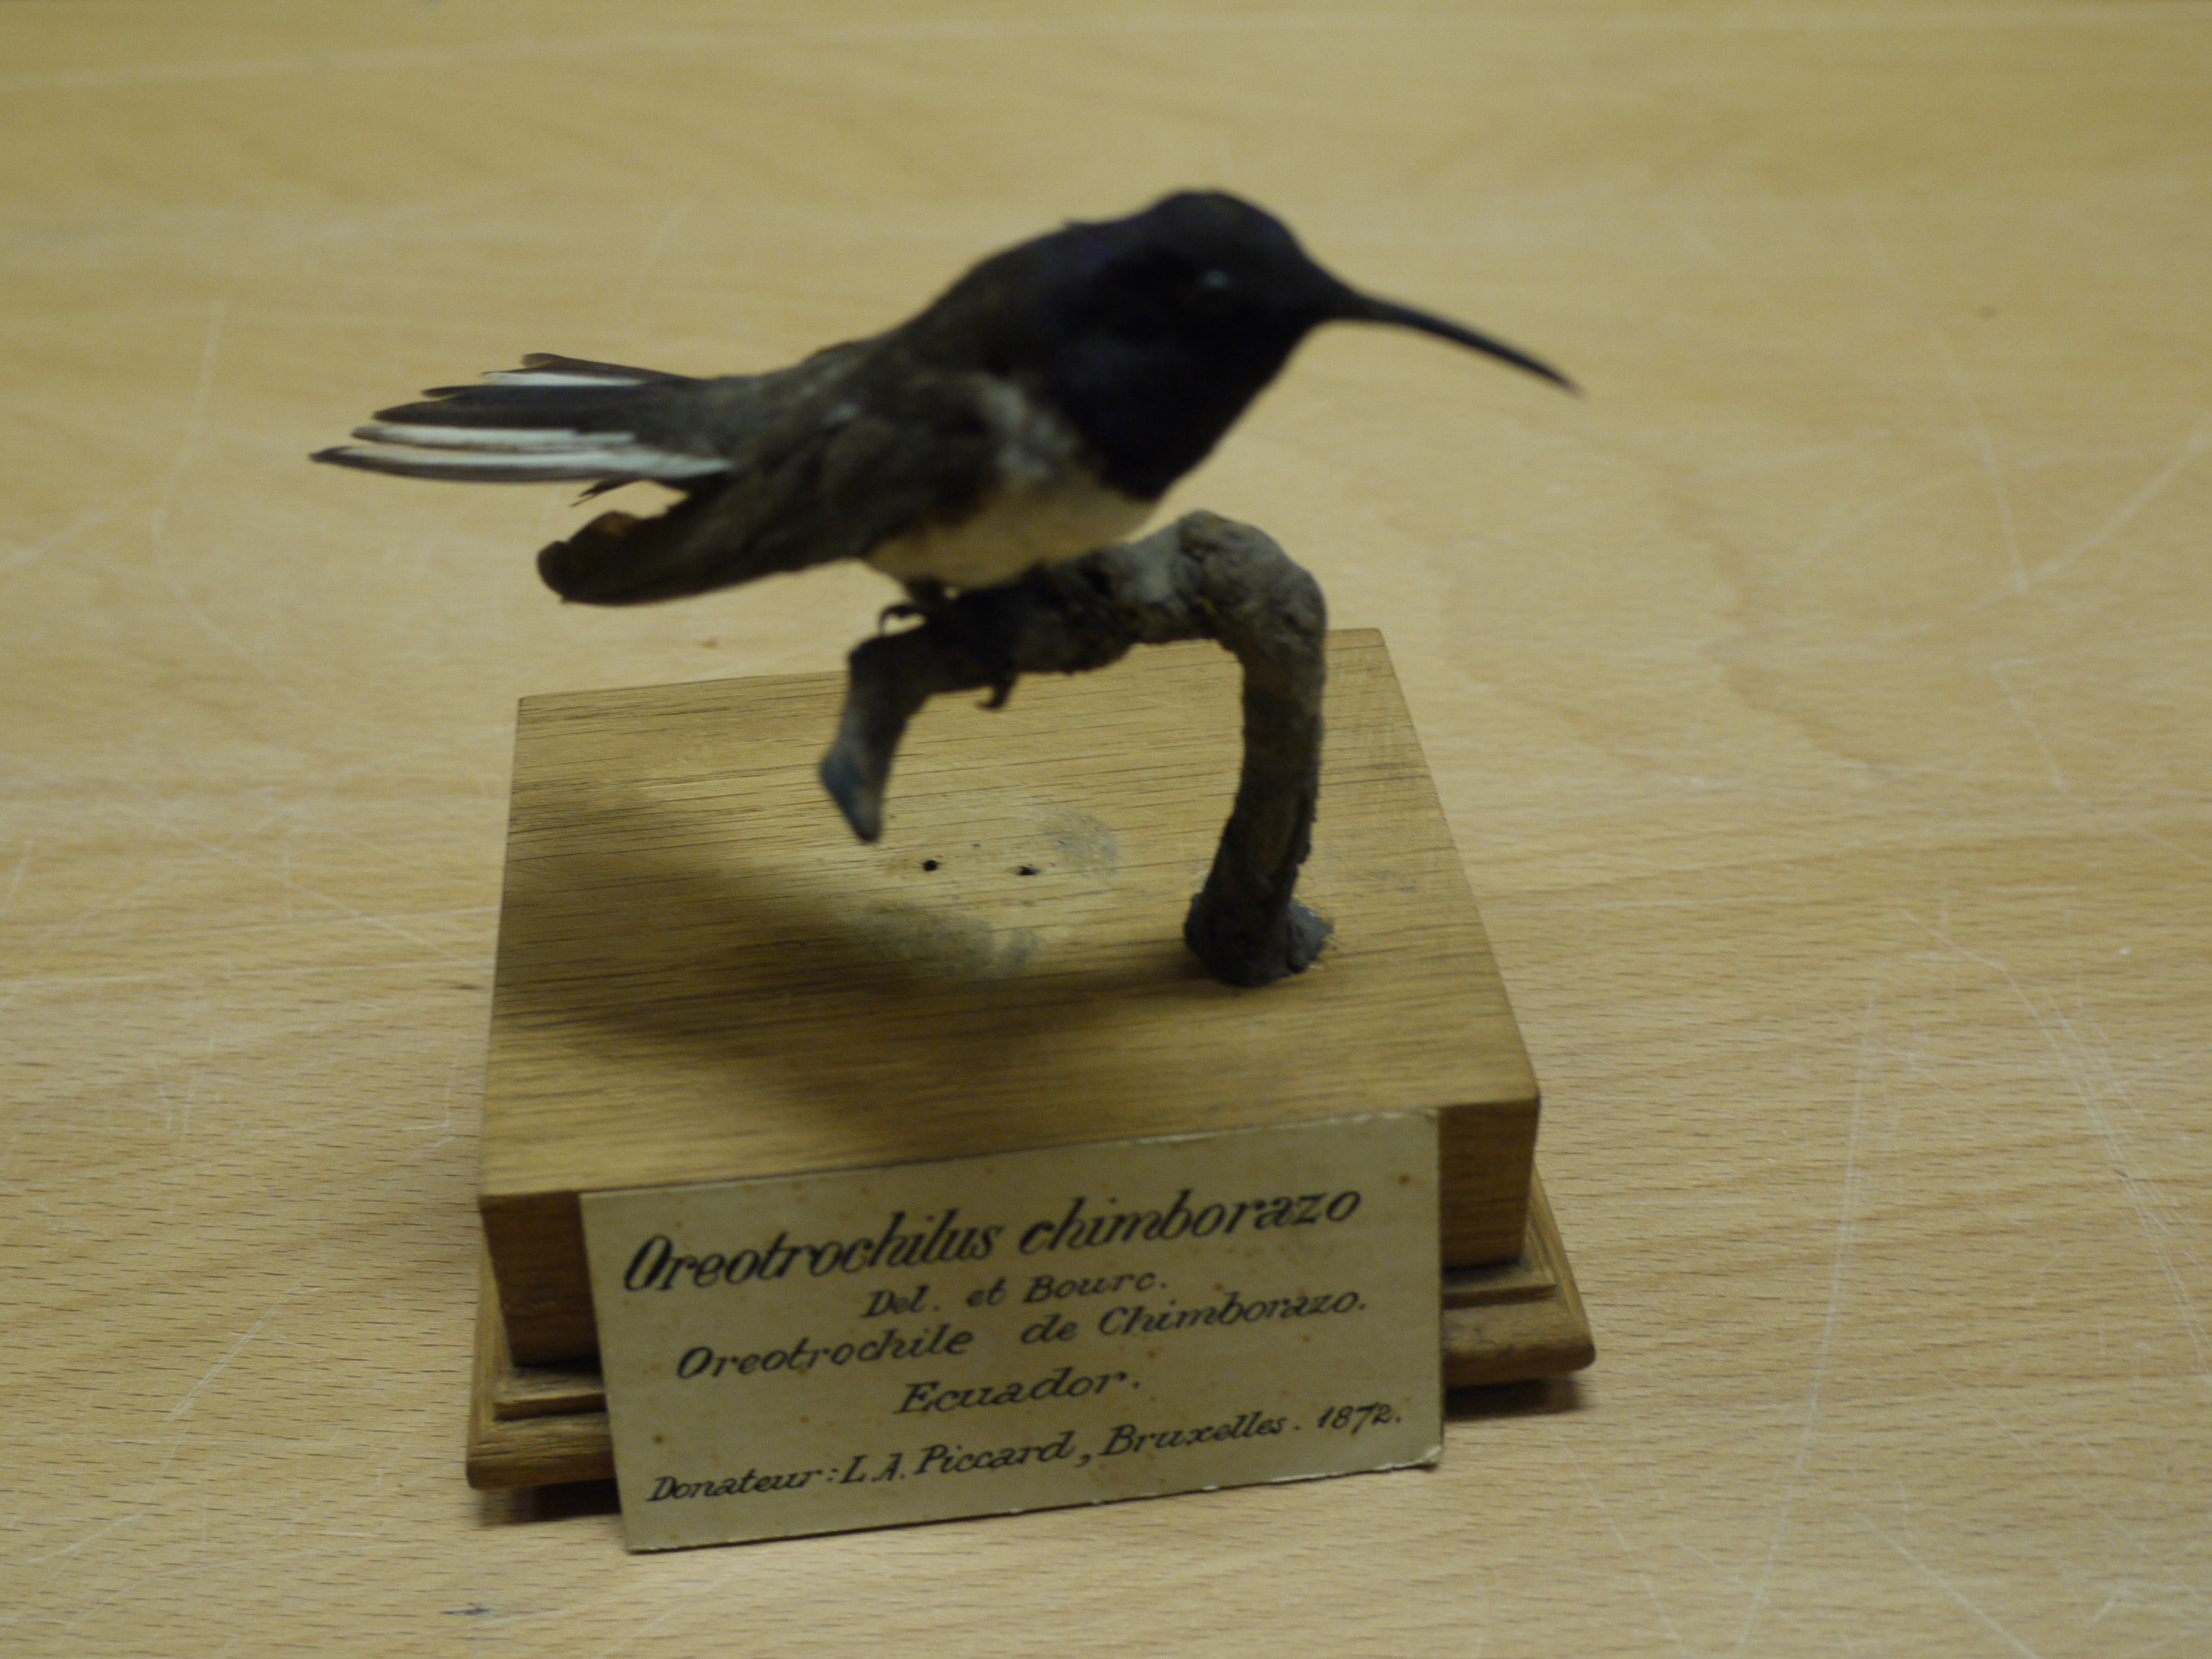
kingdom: Animalia
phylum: Chordata
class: Aves
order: Apodiformes
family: Trochilidae
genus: Oreotrochilus
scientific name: Oreotrochilus chimborazo
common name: Ecuadorian hillstar
